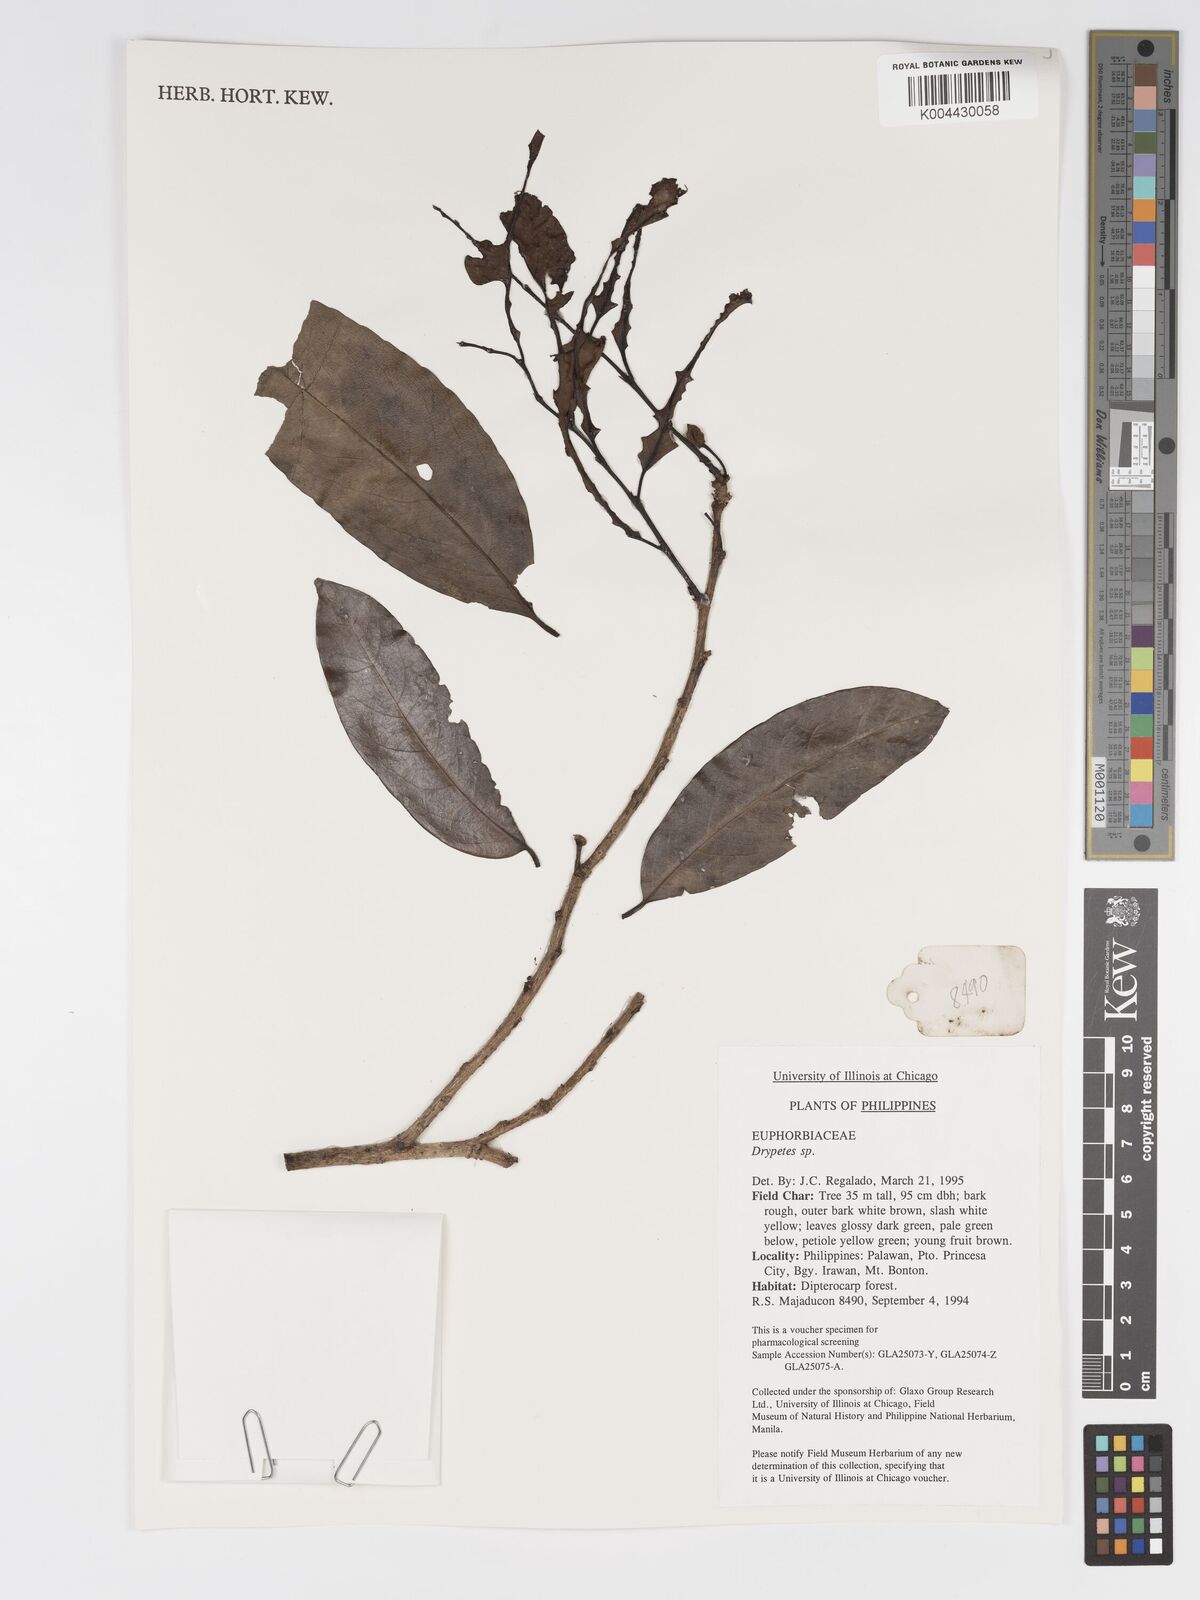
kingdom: Plantae
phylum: Tracheophyta
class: Magnoliopsida
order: Malpighiales
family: Putranjivaceae
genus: Drypetes
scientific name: Drypetes
